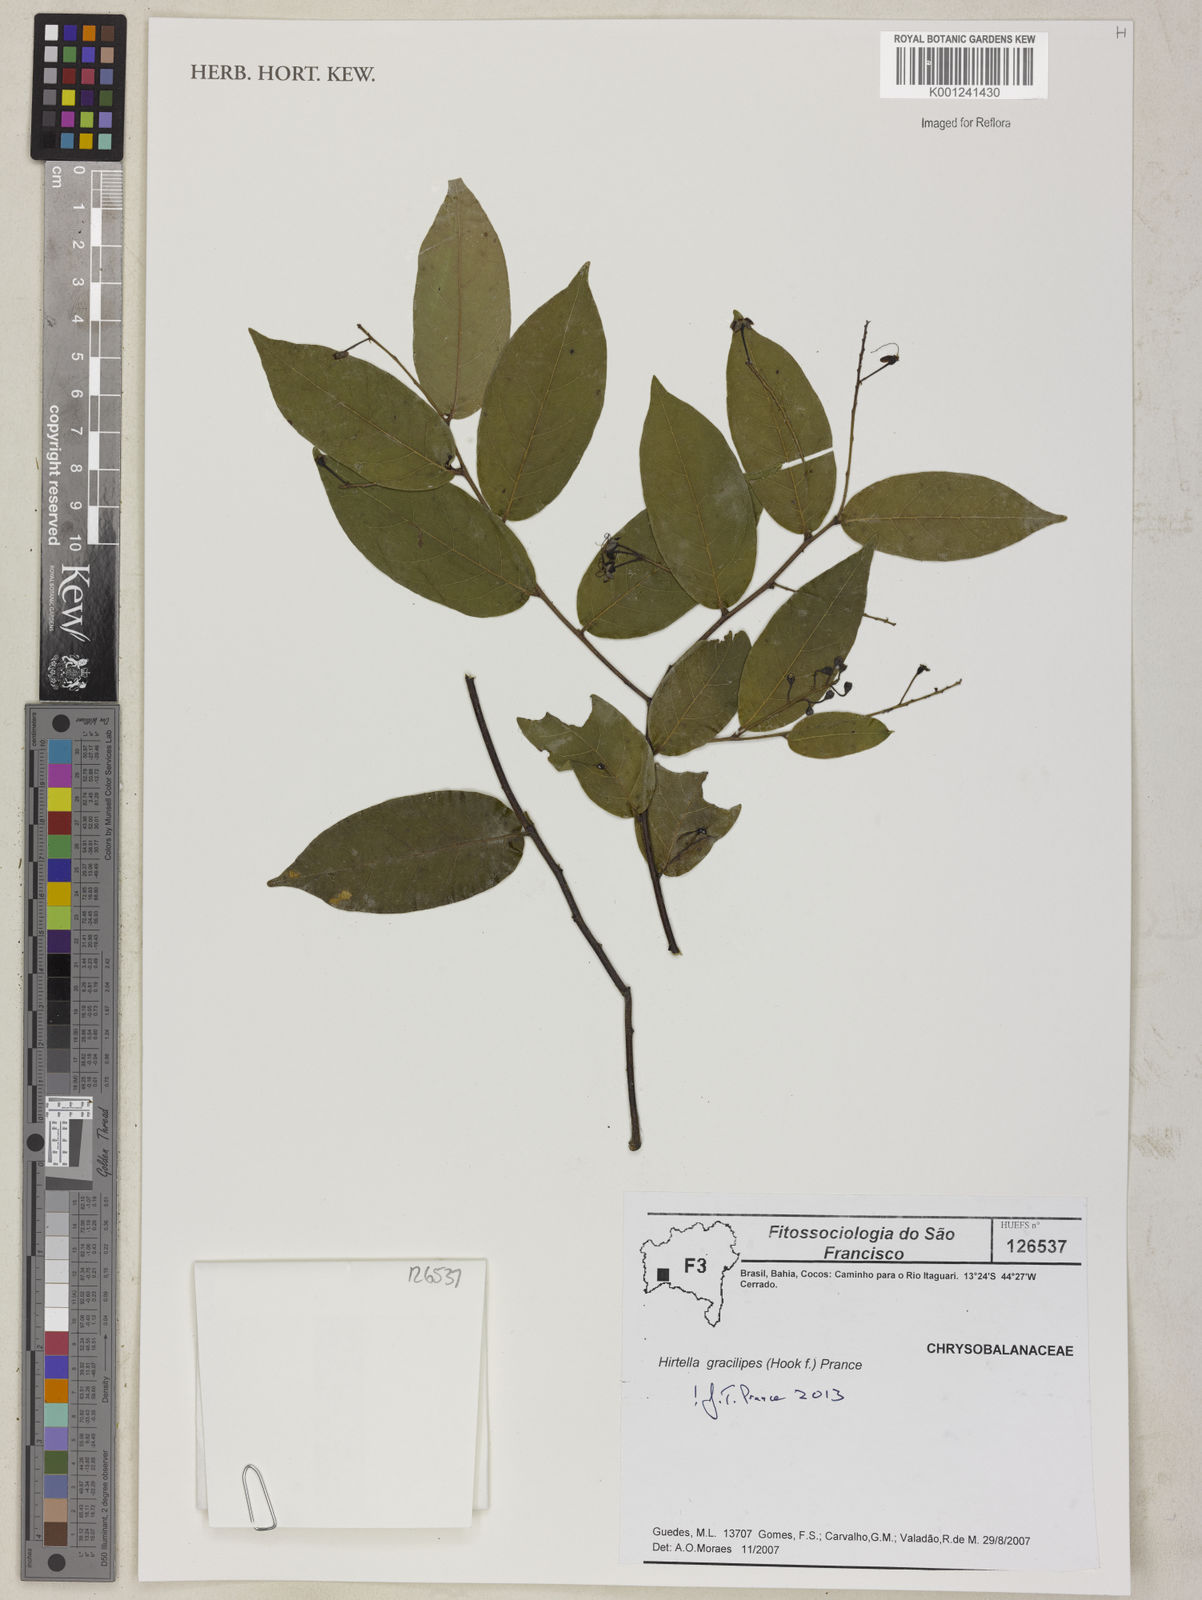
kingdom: Plantae
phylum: Tracheophyta
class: Magnoliopsida
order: Malpighiales
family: Chrysobalanaceae
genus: Hirtella
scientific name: Hirtella gracilipes
